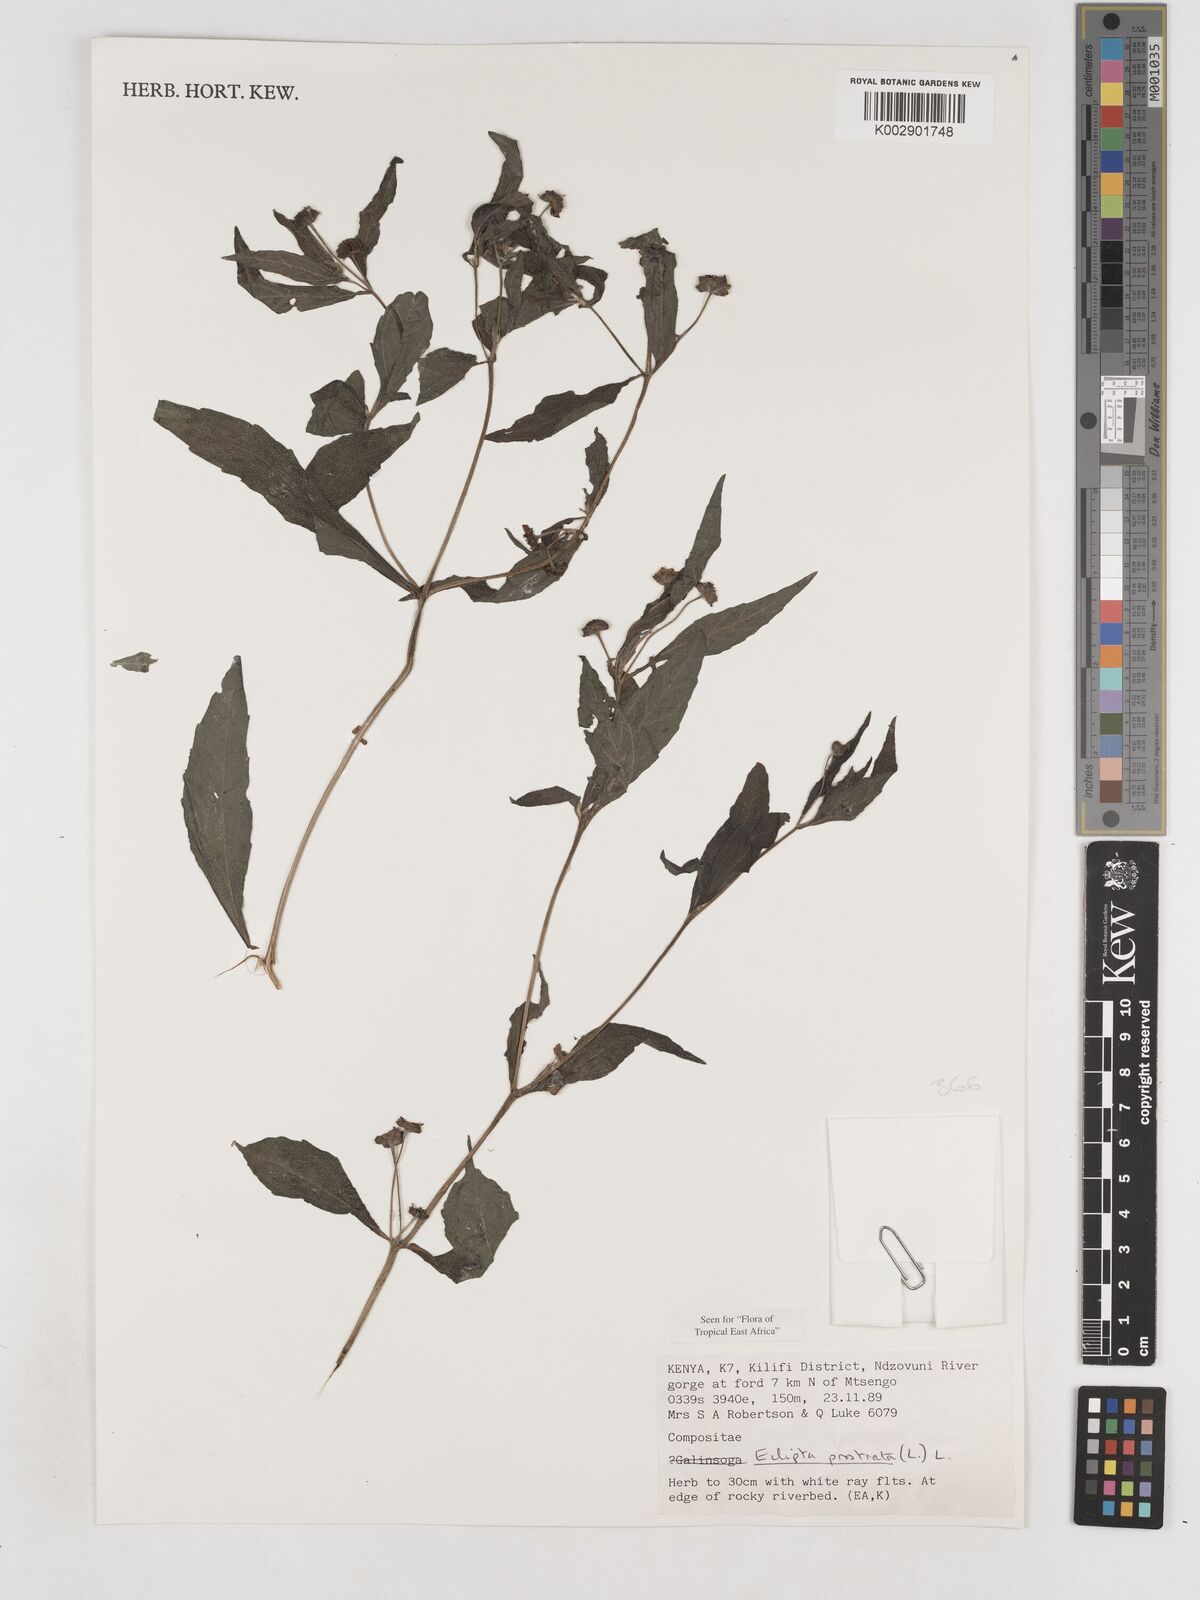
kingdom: Plantae
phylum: Tracheophyta
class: Magnoliopsida
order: Asterales
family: Asteraceae
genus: Eclipta
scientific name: Eclipta prostrata
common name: False daisy
